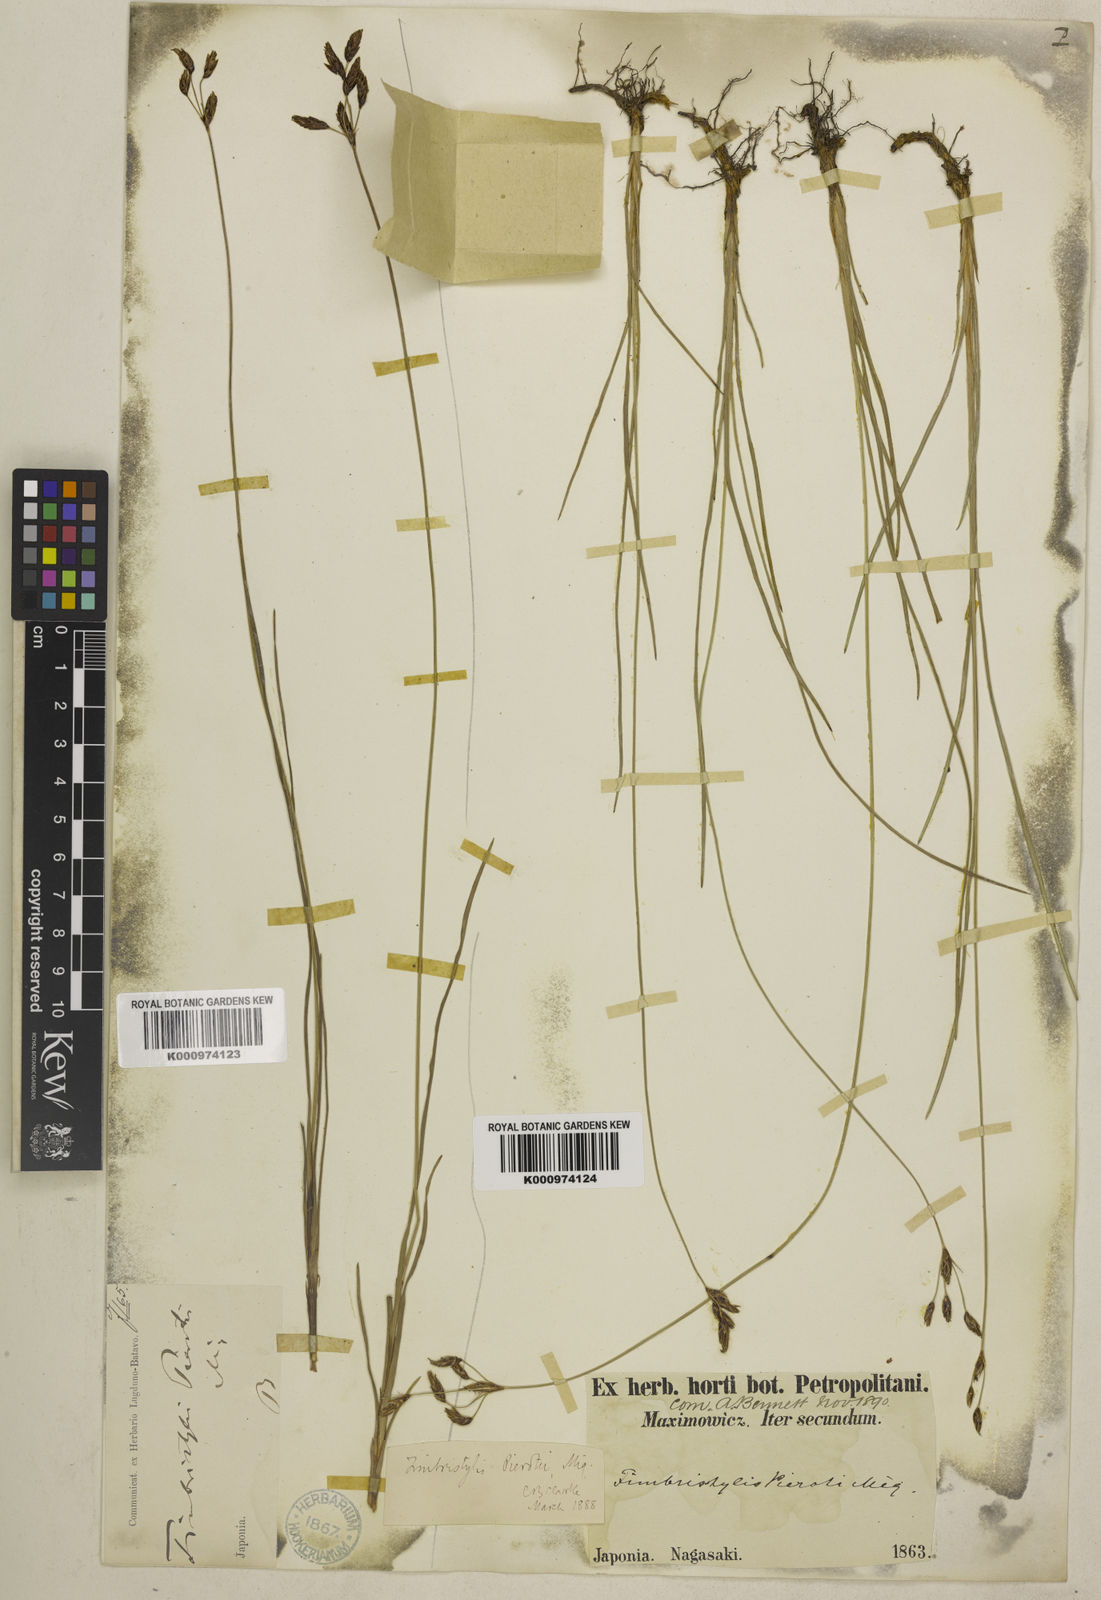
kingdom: Plantae
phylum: Tracheophyta
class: Liliopsida
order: Poales
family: Cyperaceae
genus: Fimbristylis
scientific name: Fimbristylis pierotii
